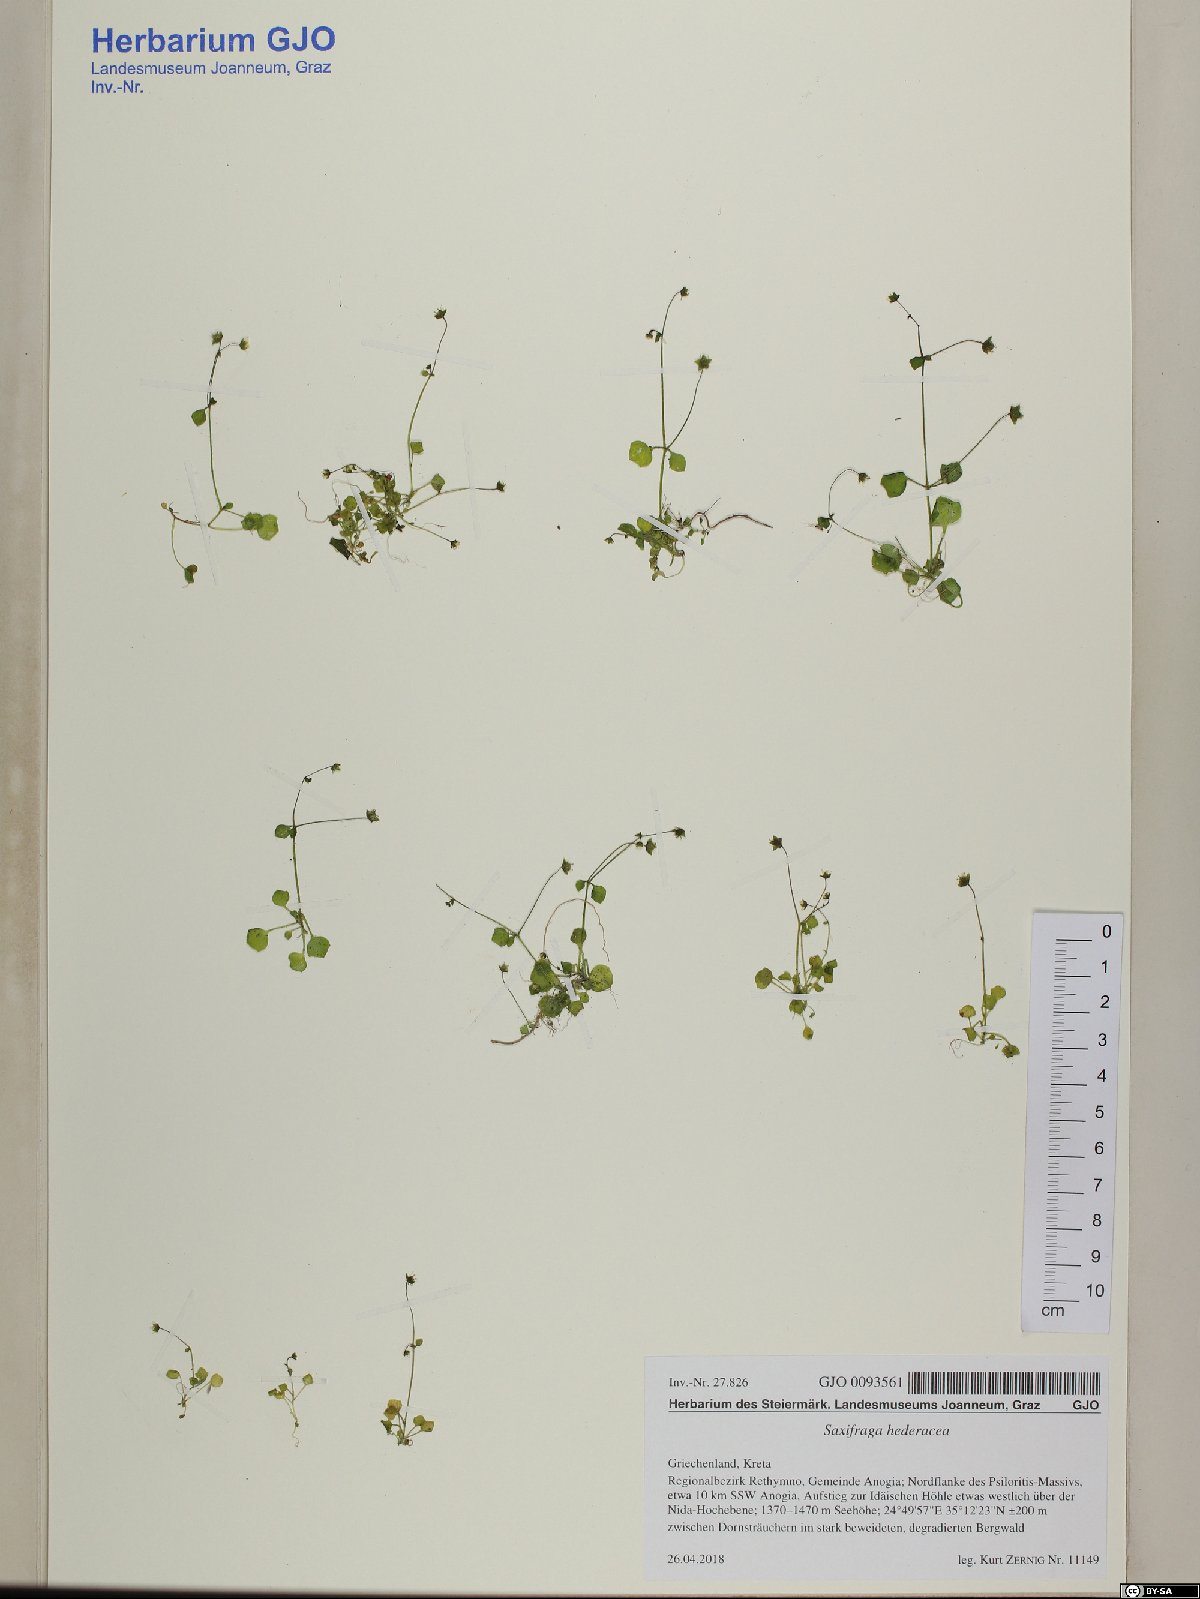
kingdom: Plantae
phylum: Tracheophyta
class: Magnoliopsida
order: Saxifragales
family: Saxifragaceae
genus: Saxifraga
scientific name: Saxifraga hederacea
